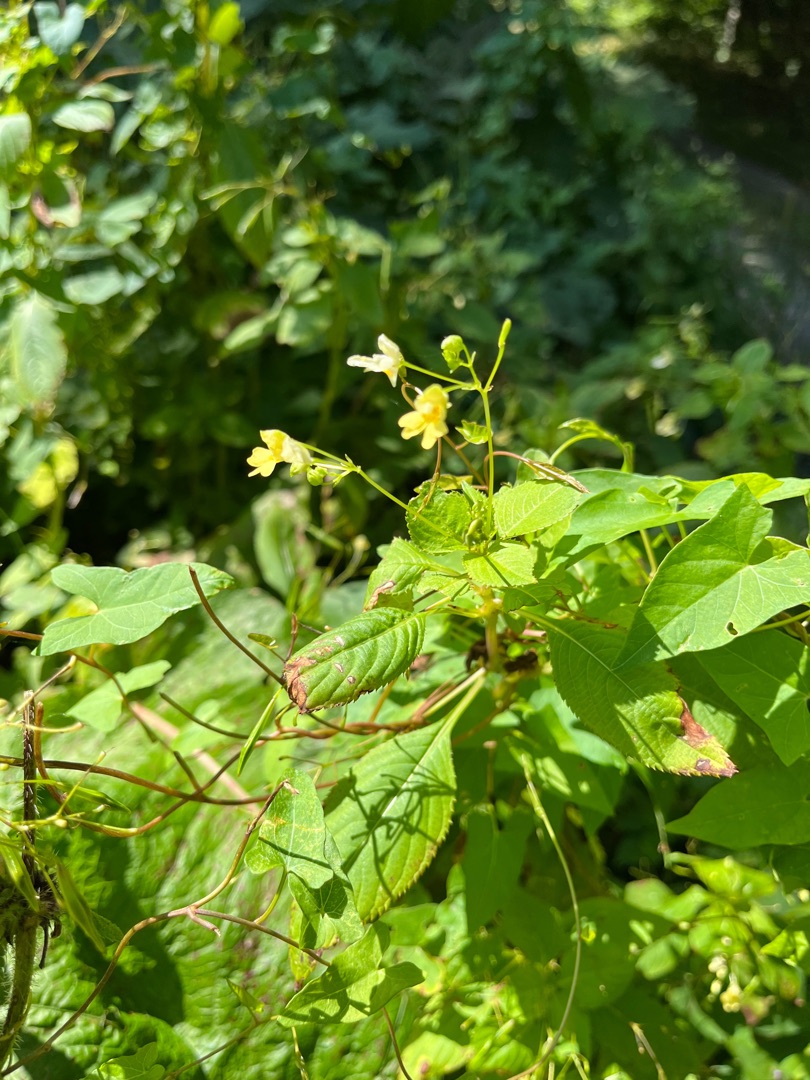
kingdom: Plantae
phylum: Tracheophyta
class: Magnoliopsida
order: Ericales
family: Balsaminaceae
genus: Impatiens
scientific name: Impatiens parviflora
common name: Småblomstret balsamin
